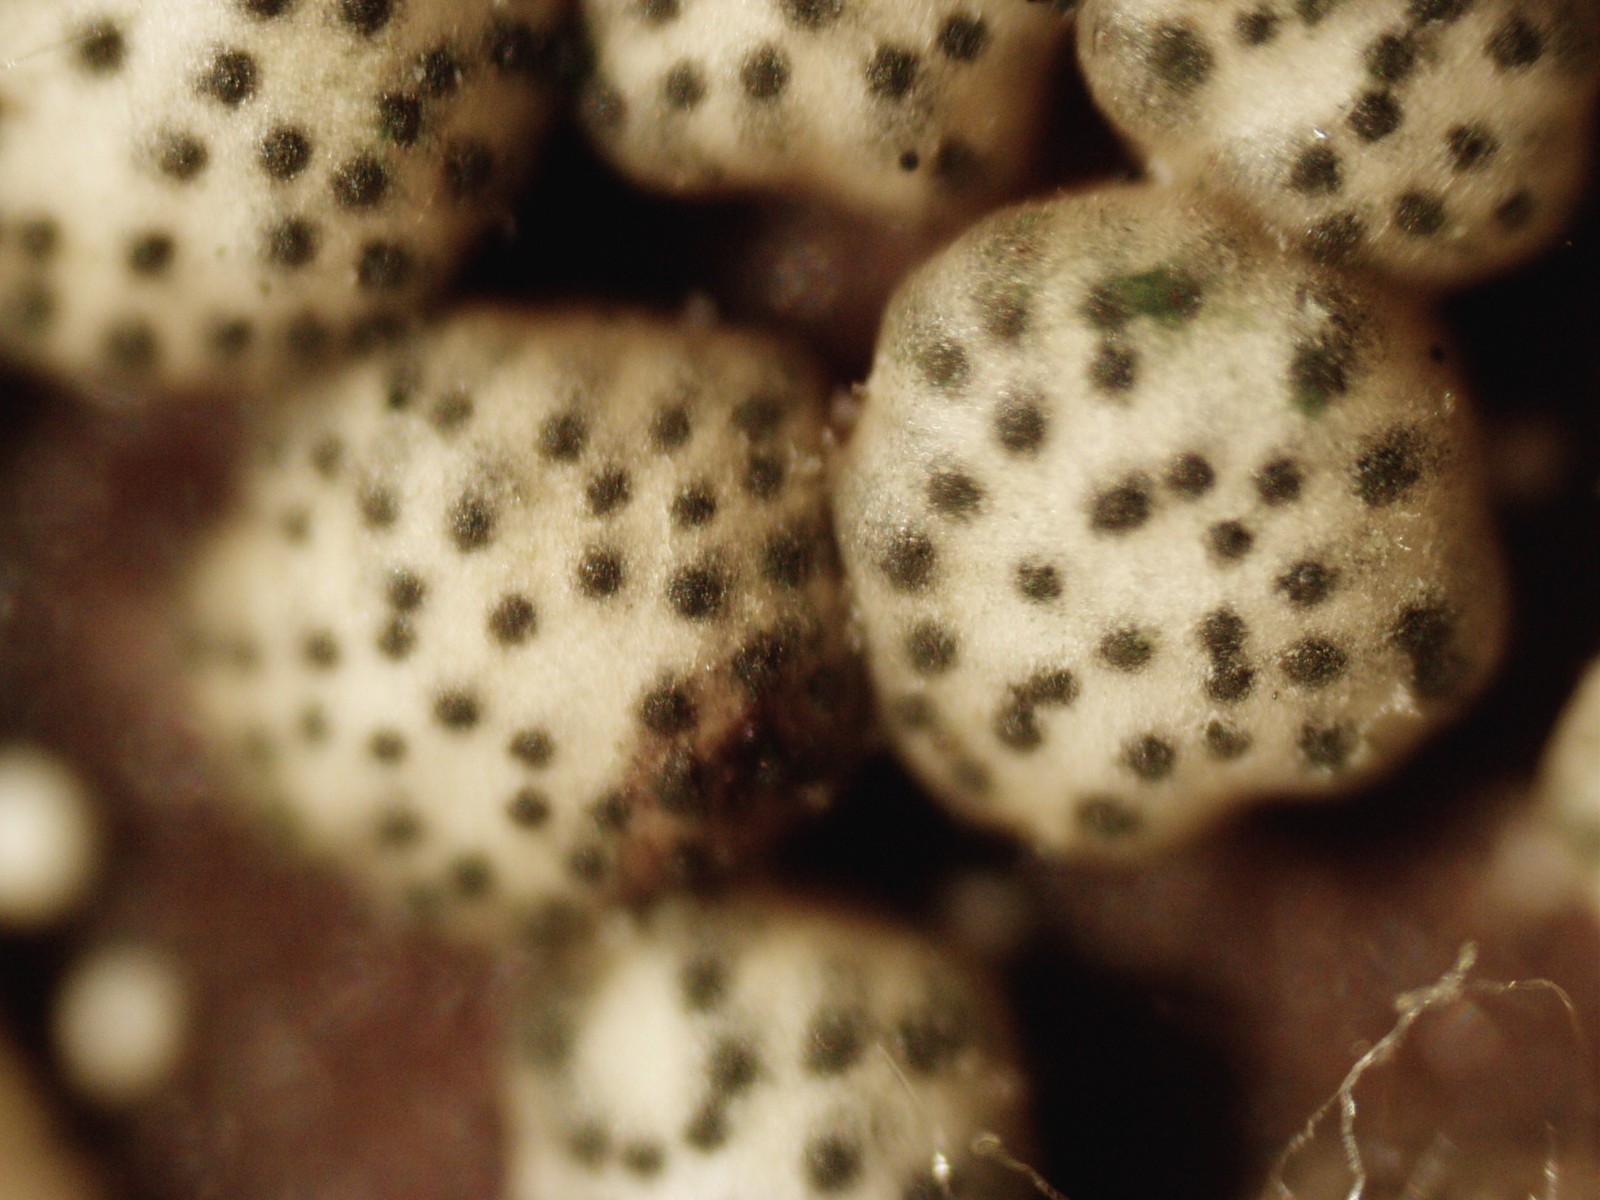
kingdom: Fungi
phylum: Ascomycota
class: Sordariomycetes
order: Hypocreales
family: Hypocreaceae
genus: Trichoderma
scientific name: Trichoderma strictipile
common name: grønprikket kødkerne
